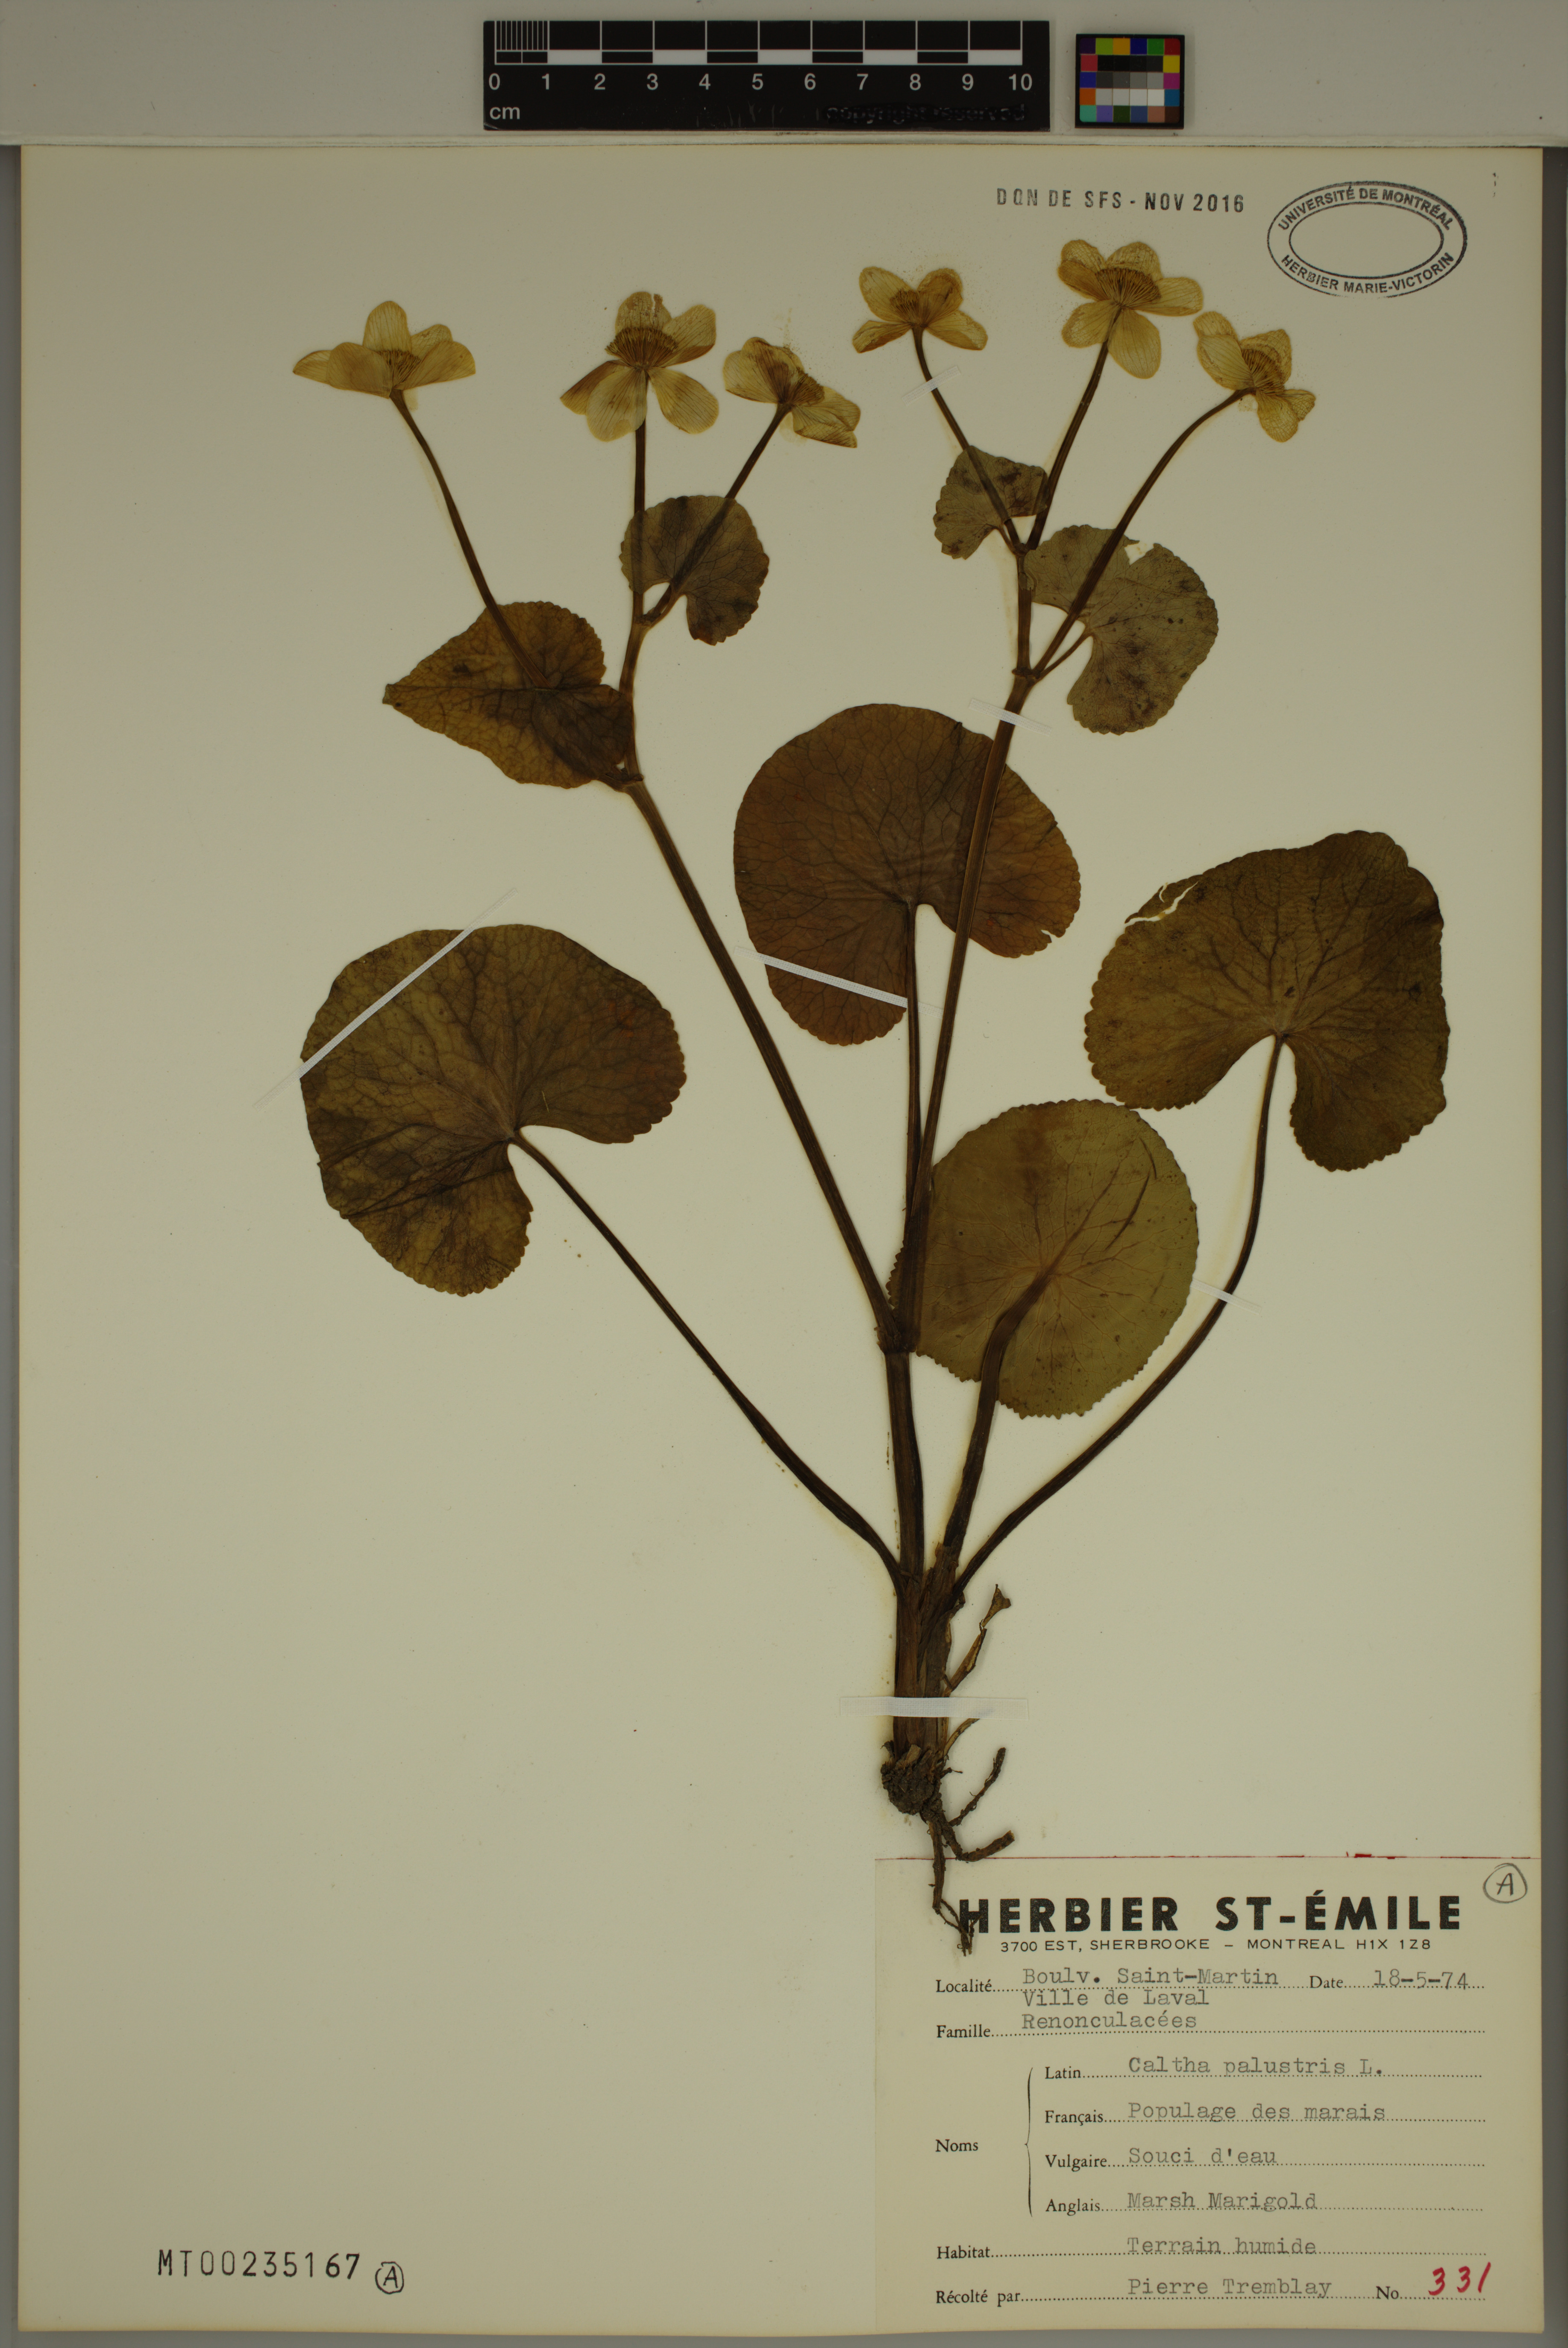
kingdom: Plantae
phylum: Tracheophyta
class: Magnoliopsida
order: Ranunculales
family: Ranunculaceae
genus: Caltha
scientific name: Caltha palustris
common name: Marsh marigold
